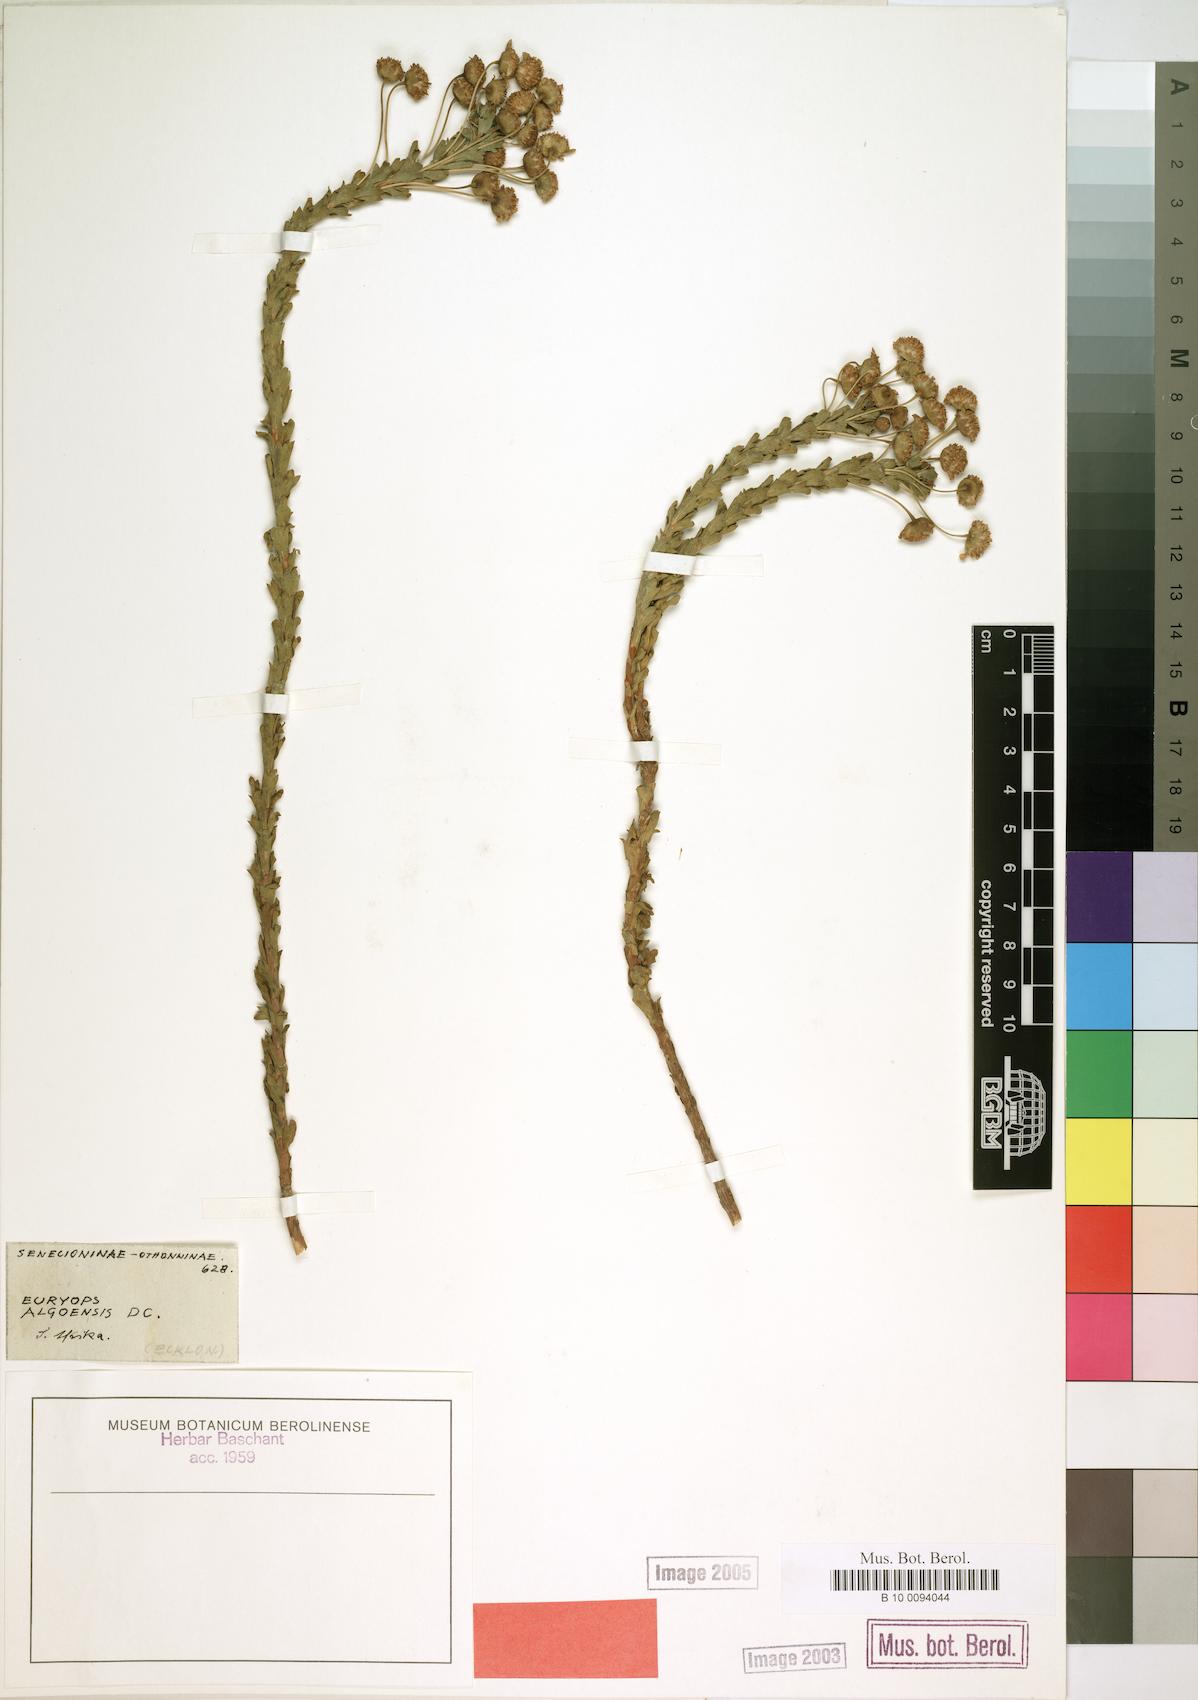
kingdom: Plantae
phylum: Tracheophyta
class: Magnoliopsida
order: Asterales
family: Asteraceae
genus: Euryops
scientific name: Euryops algoensis
